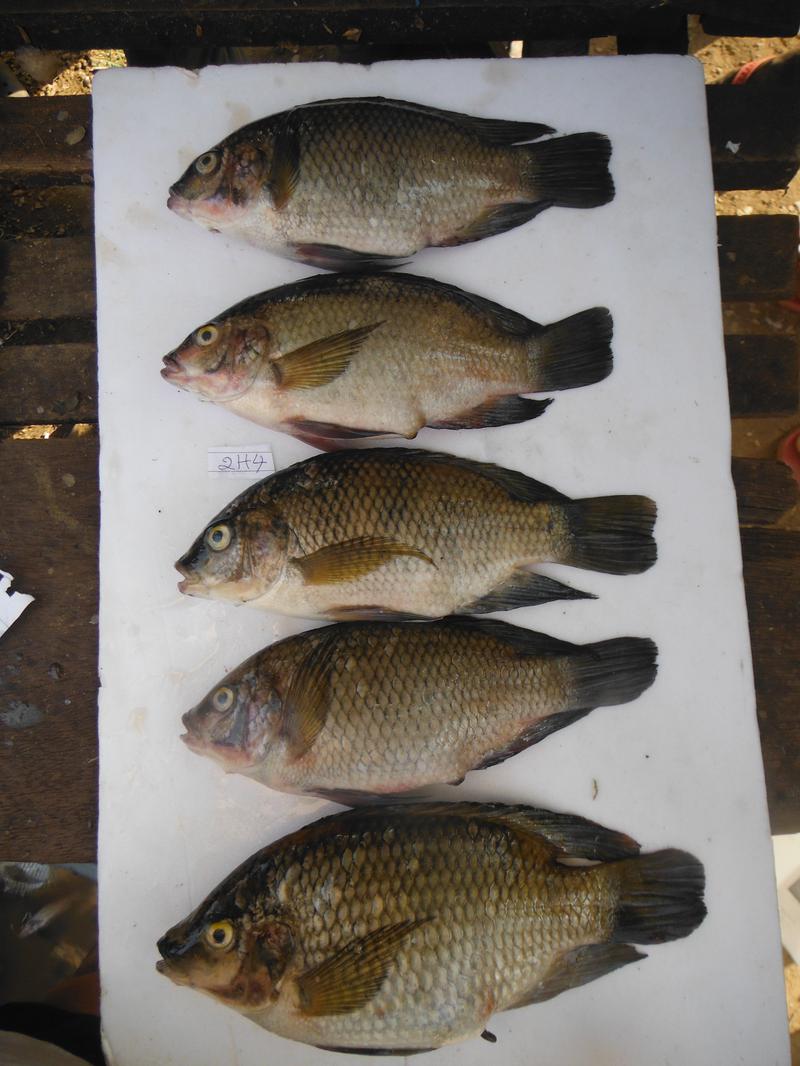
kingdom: Animalia
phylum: Chordata
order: Perciformes
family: Cichlidae
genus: Oreochromis
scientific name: Oreochromis urolepis
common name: Wami tilapia
